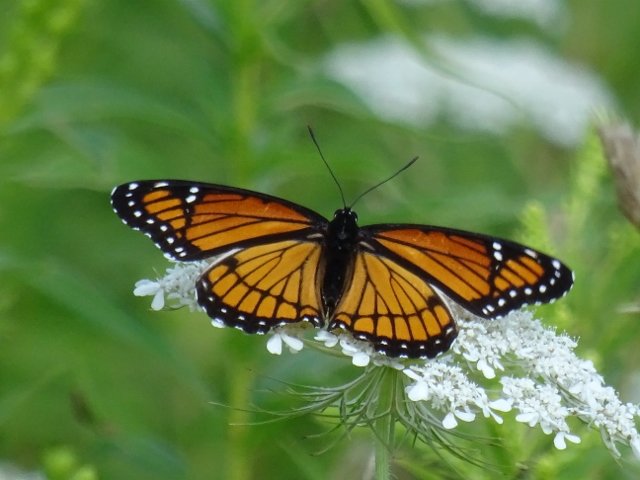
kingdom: Animalia
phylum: Arthropoda
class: Insecta
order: Lepidoptera
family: Nymphalidae
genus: Limenitis
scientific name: Limenitis archippus
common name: Viceroy
